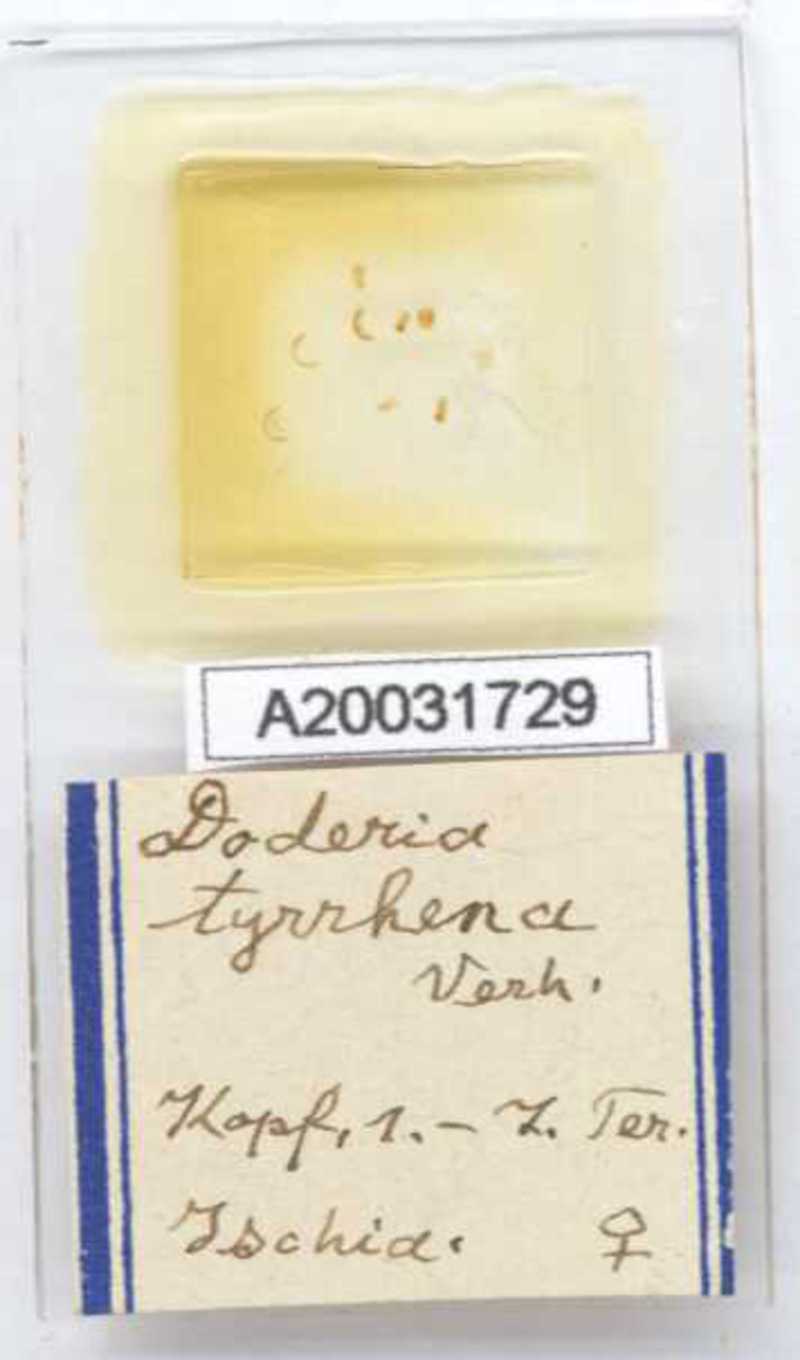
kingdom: Animalia
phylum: Arthropoda
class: Diplopoda
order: Glomerida
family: Glomeridae
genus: Doderia
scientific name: Doderia tyrrhena
